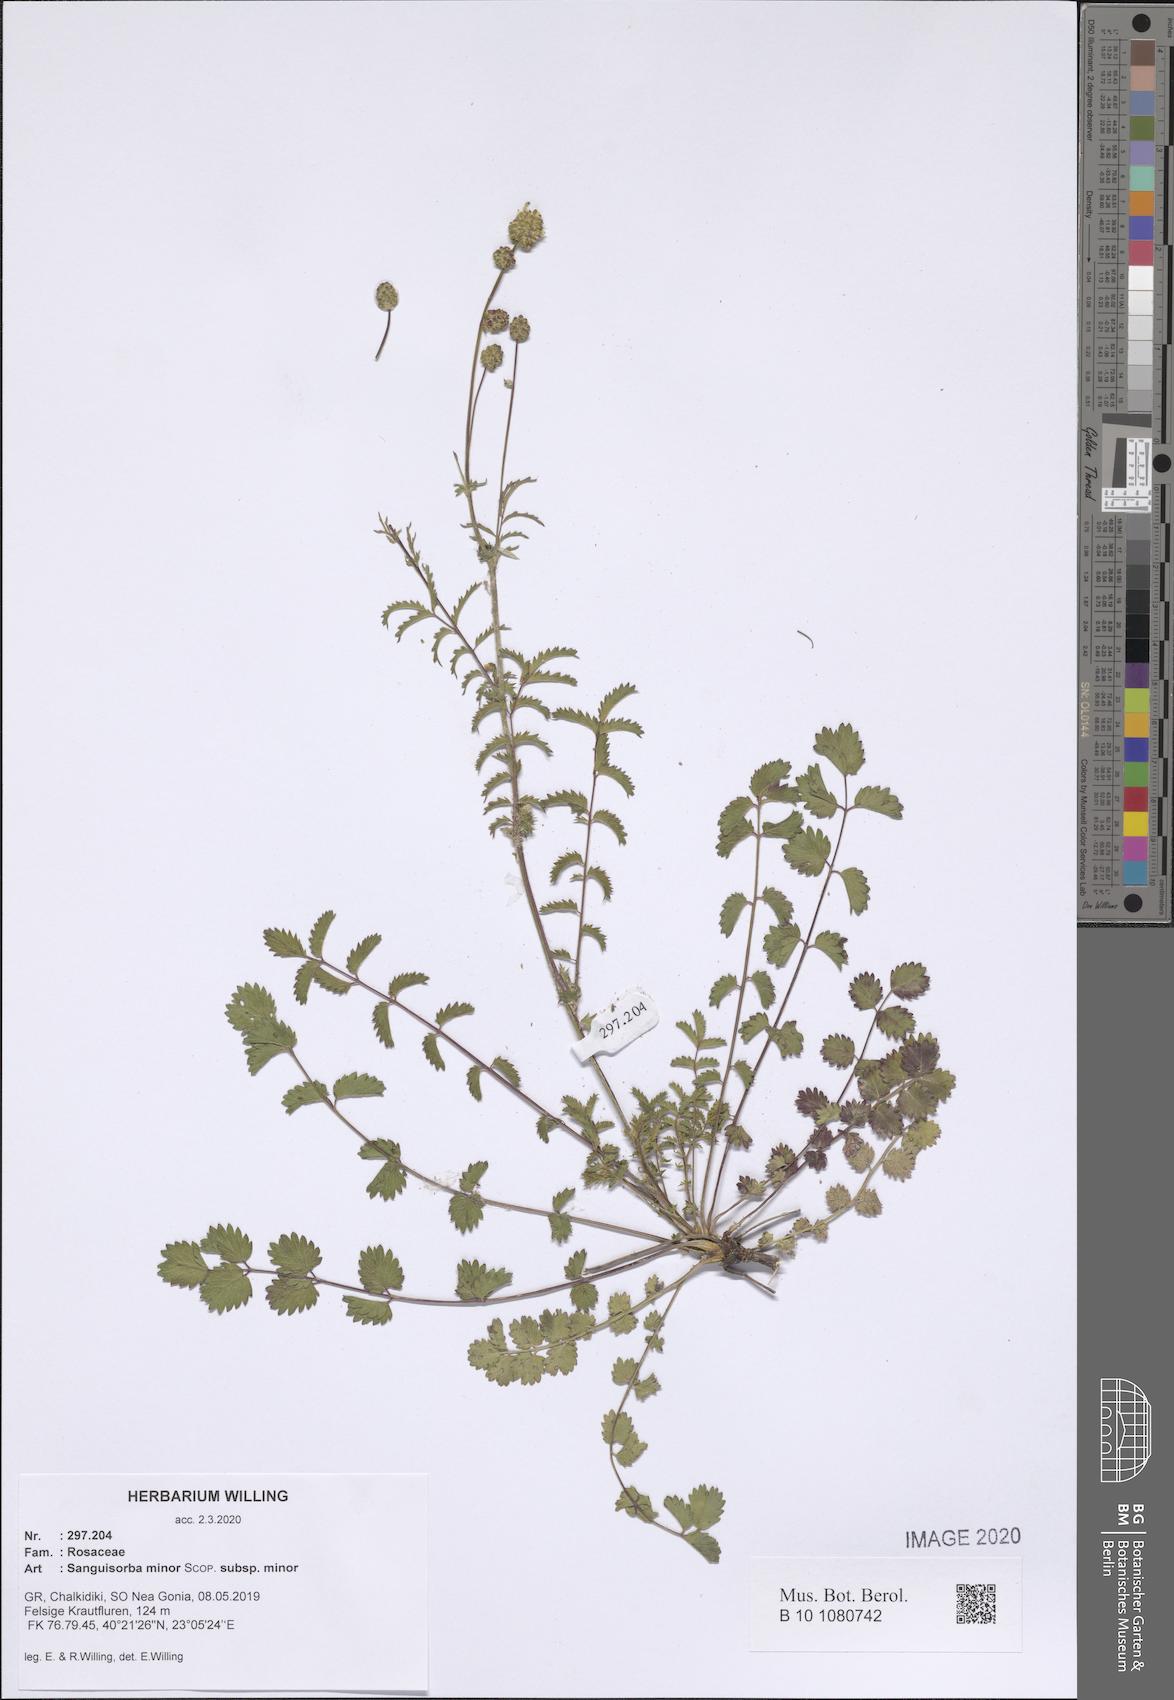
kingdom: Plantae
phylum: Tracheophyta
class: Magnoliopsida
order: Rosales
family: Rosaceae
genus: Poterium
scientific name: Poterium sanguisorba
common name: Salad burnet
